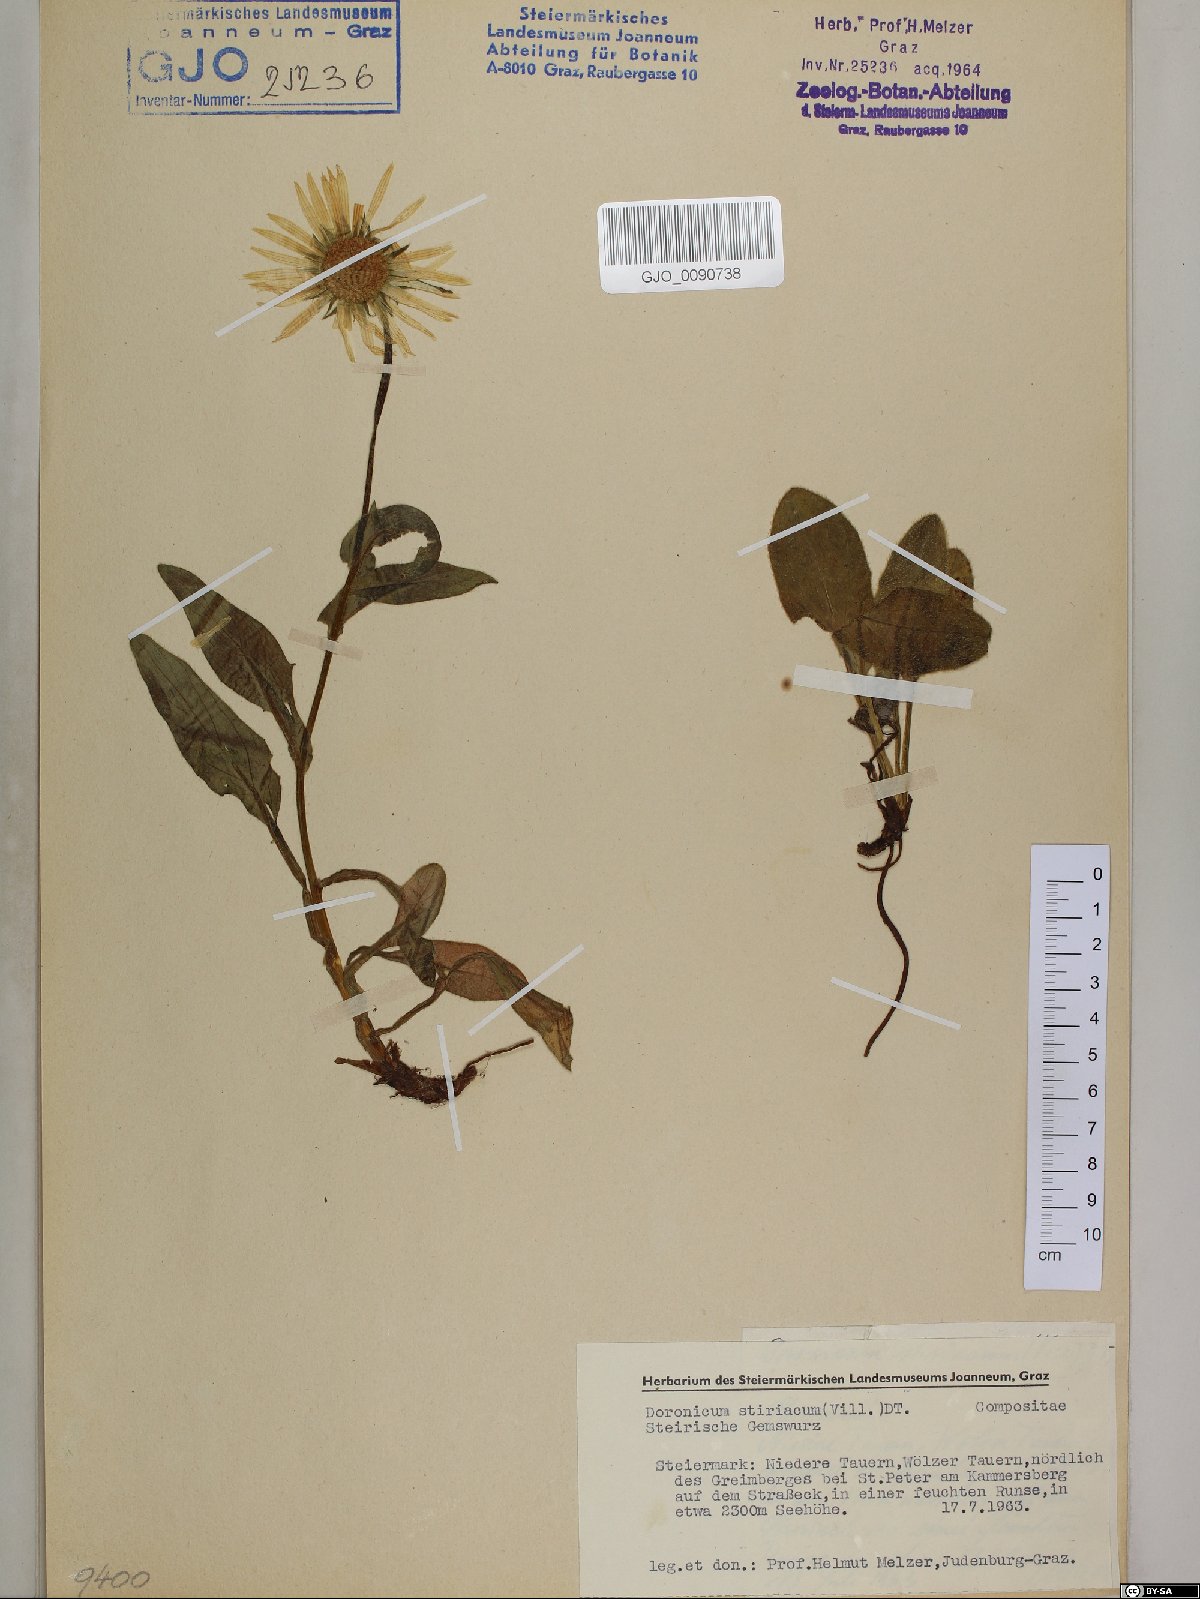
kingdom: Plantae
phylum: Tracheophyta
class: Magnoliopsida
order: Asterales
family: Asteraceae
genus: Doronicum
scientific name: Doronicum clusii
